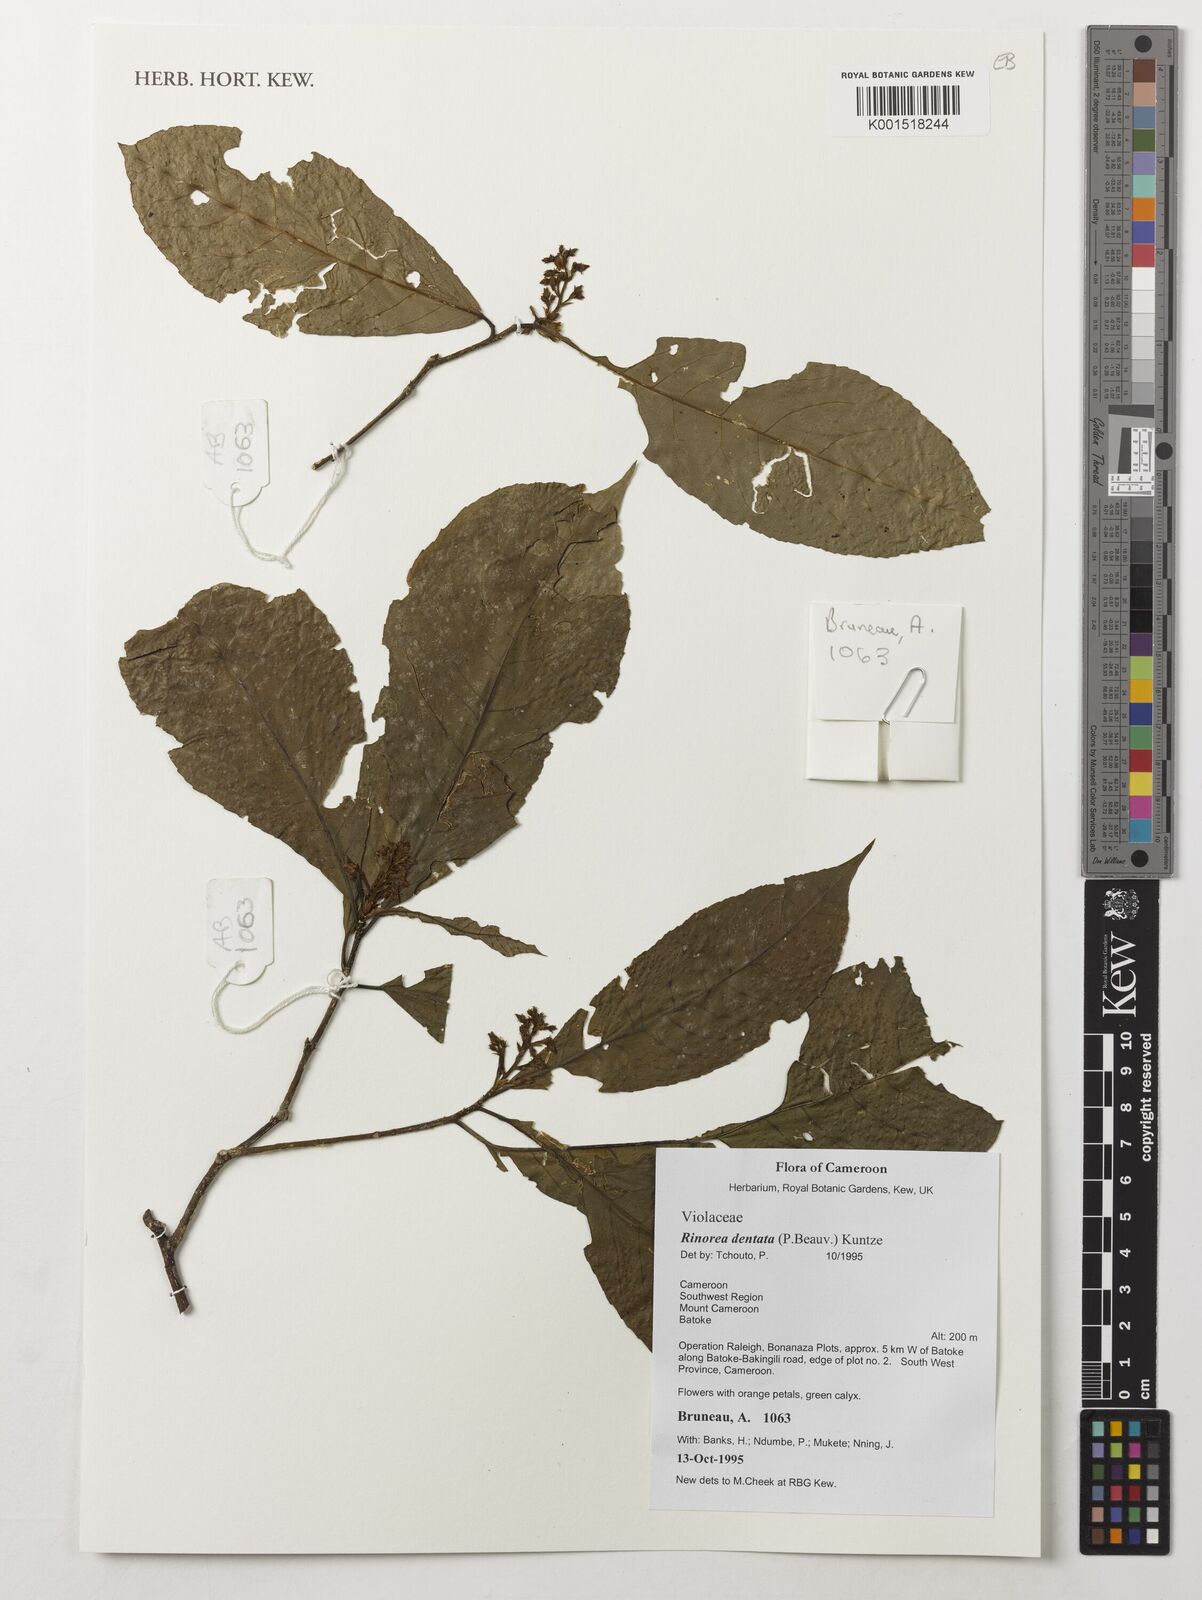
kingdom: Plantae
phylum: Tracheophyta
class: Magnoliopsida
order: Malpighiales
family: Violaceae
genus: Rinorea
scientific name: Rinorea dentata
